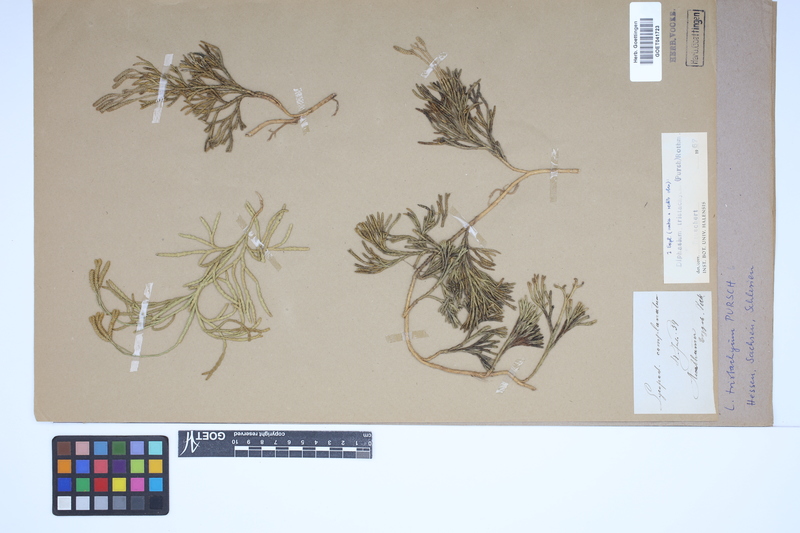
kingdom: Plantae
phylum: Tracheophyta
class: Lycopodiopsida
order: Lycopodiales
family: Lycopodiaceae
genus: Diphasiastrum
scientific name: Diphasiastrum tristachyum
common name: Blue ground-cedar
